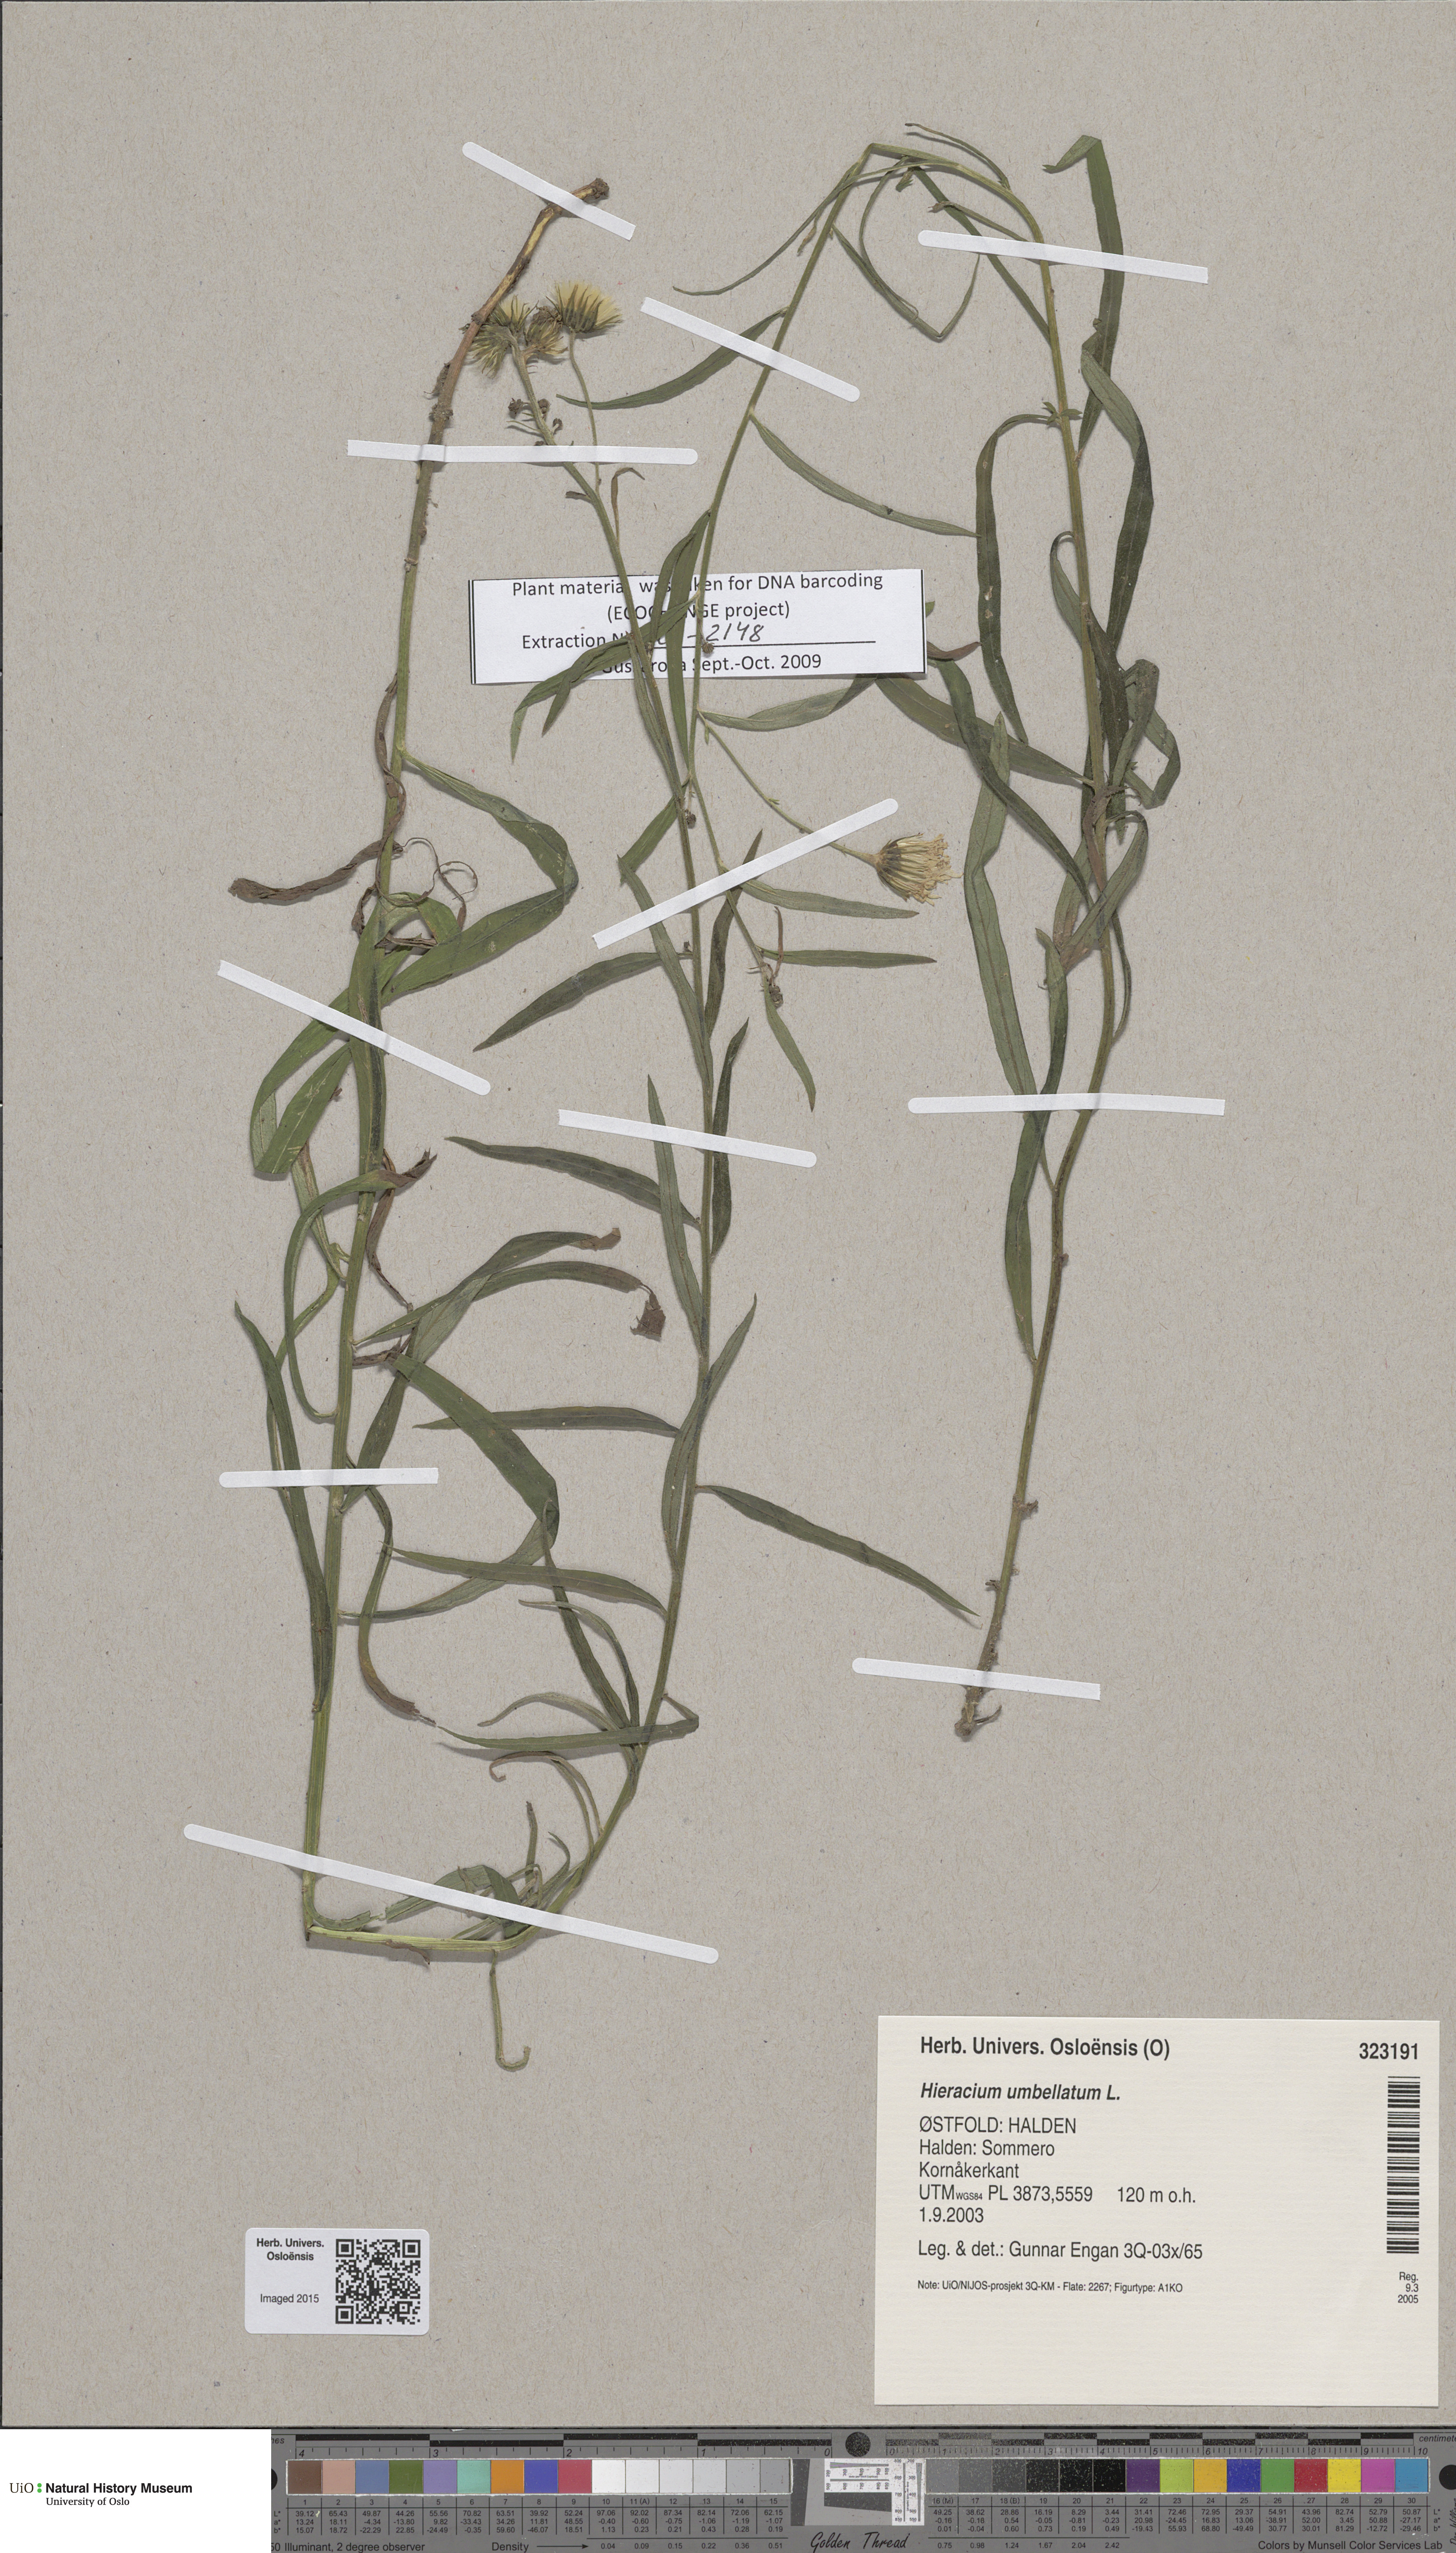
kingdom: Plantae
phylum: Tracheophyta
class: Magnoliopsida
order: Asterales
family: Asteraceae
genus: Hieracium
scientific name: Hieracium umbellatum
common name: Northern hawkweed
